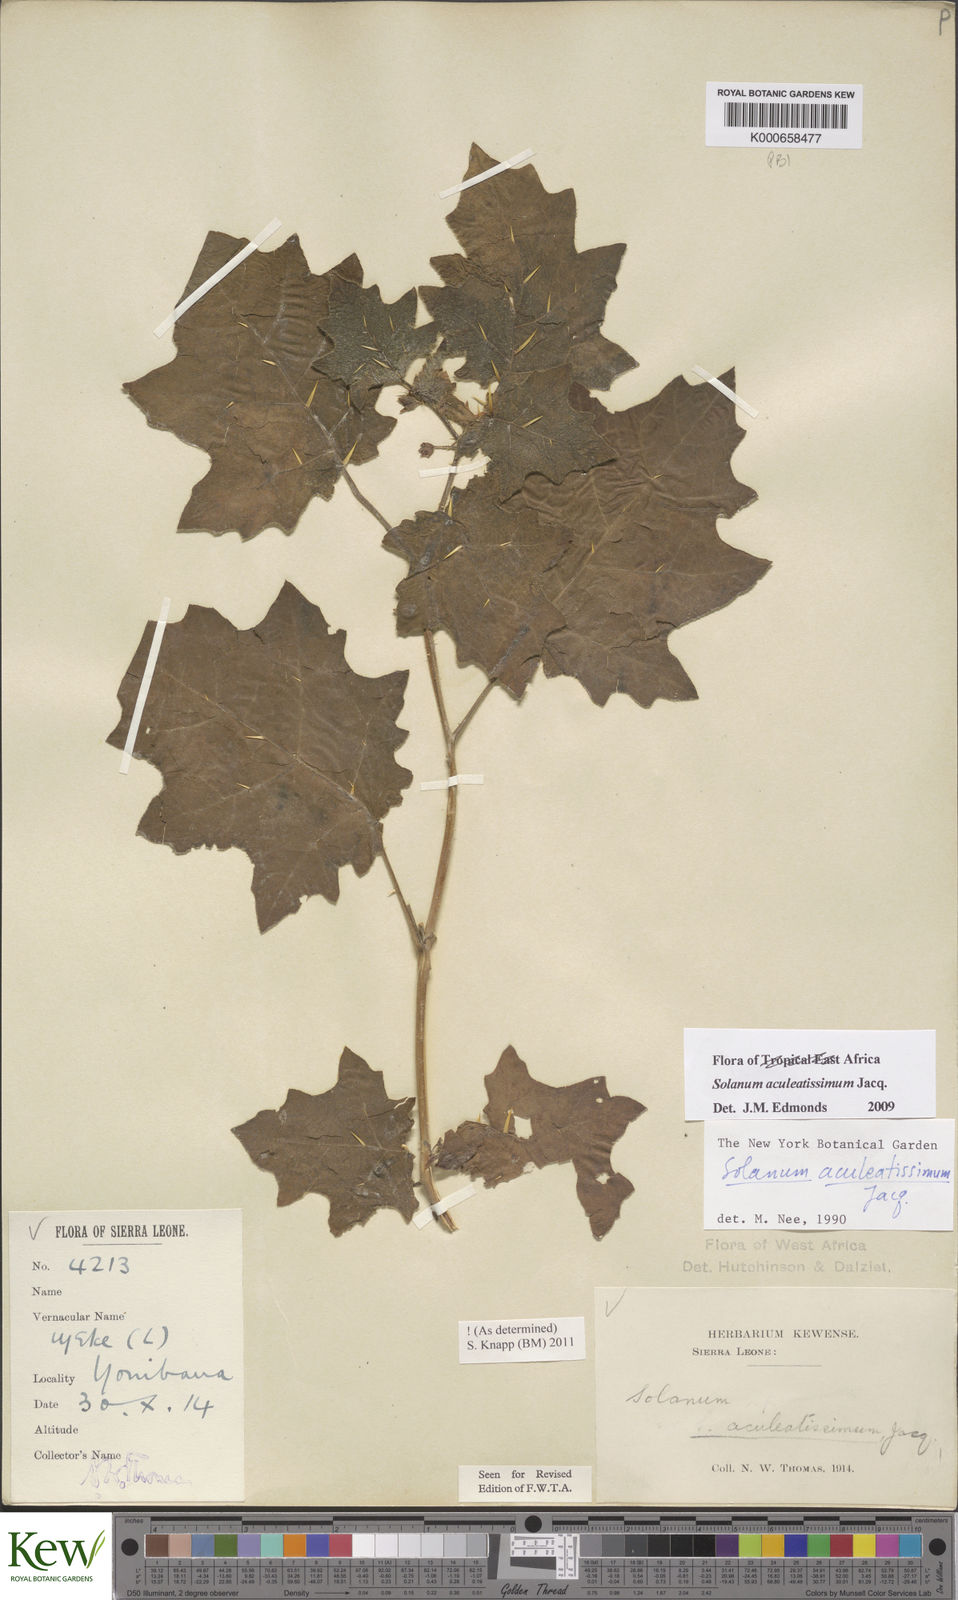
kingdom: Plantae
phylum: Tracheophyta
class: Magnoliopsida
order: Solanales
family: Solanaceae
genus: Solanum
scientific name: Solanum aculeatissimum
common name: Dutch eggplant
